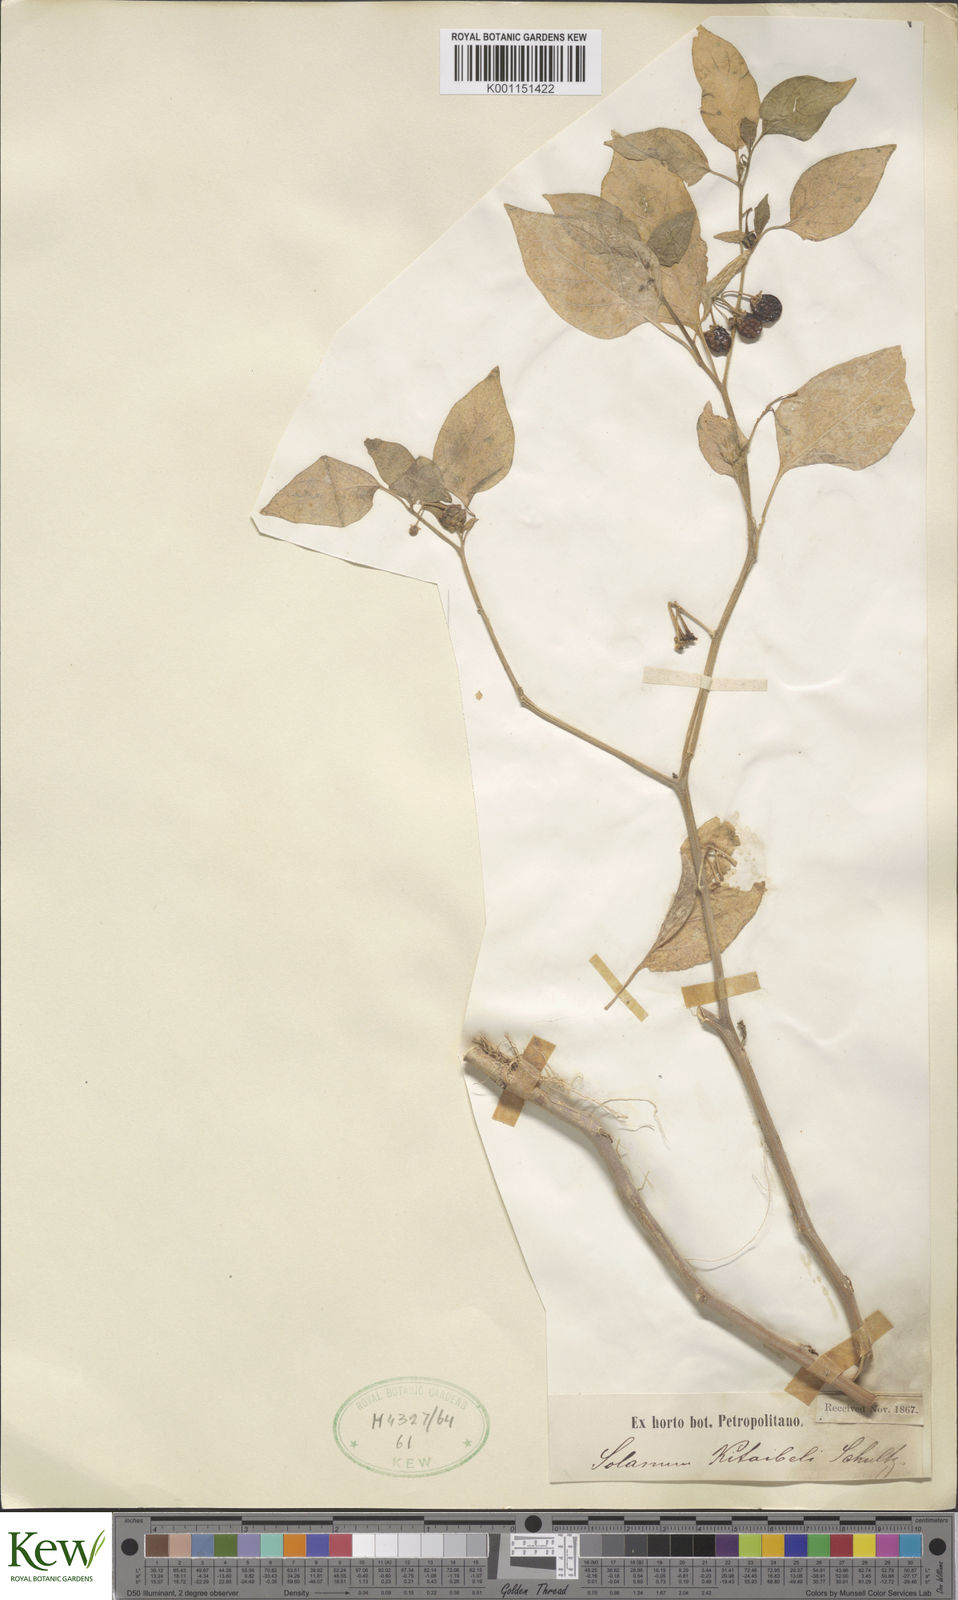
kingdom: Plantae
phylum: Tracheophyta
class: Magnoliopsida
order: Solanales
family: Solanaceae
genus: Solanum
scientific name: Solanum villosum
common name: Red nightshade
